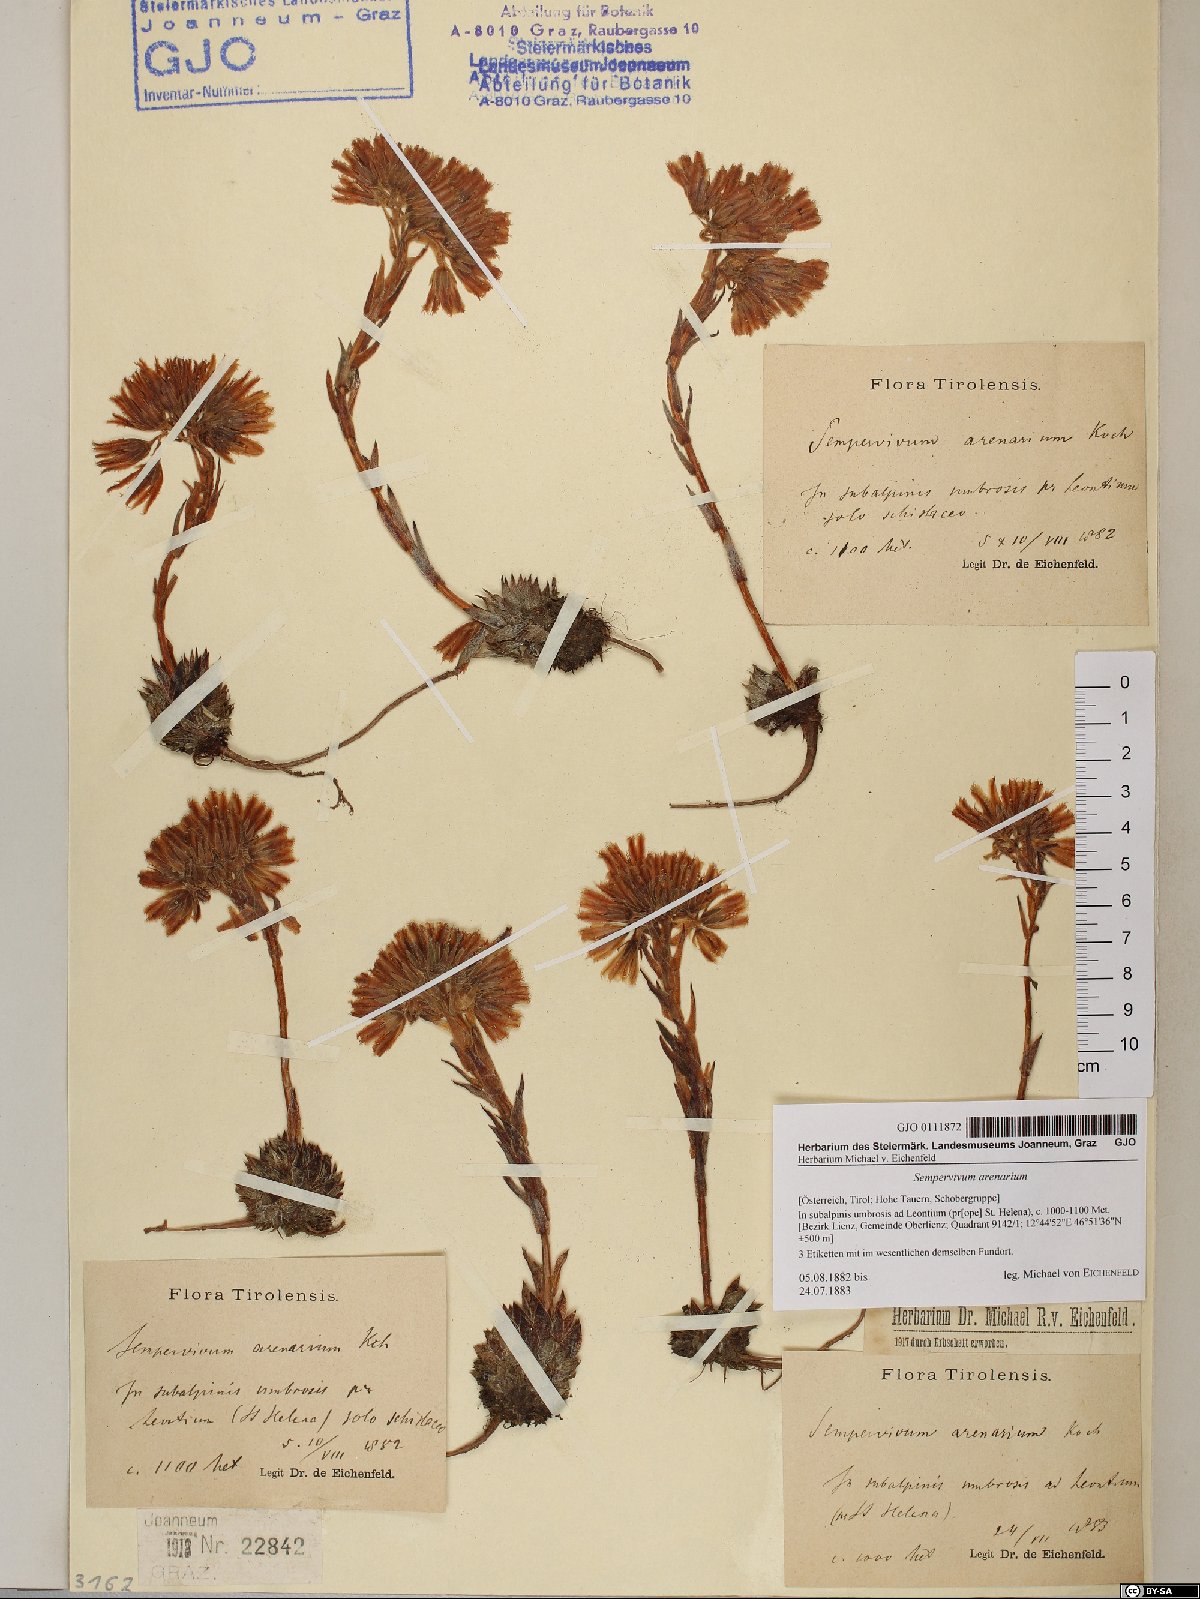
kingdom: Plantae
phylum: Tracheophyta
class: Magnoliopsida
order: Saxifragales
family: Crassulaceae
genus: Sempervivum
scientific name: Sempervivum globiferum
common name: Rolling hen-and-chicks
